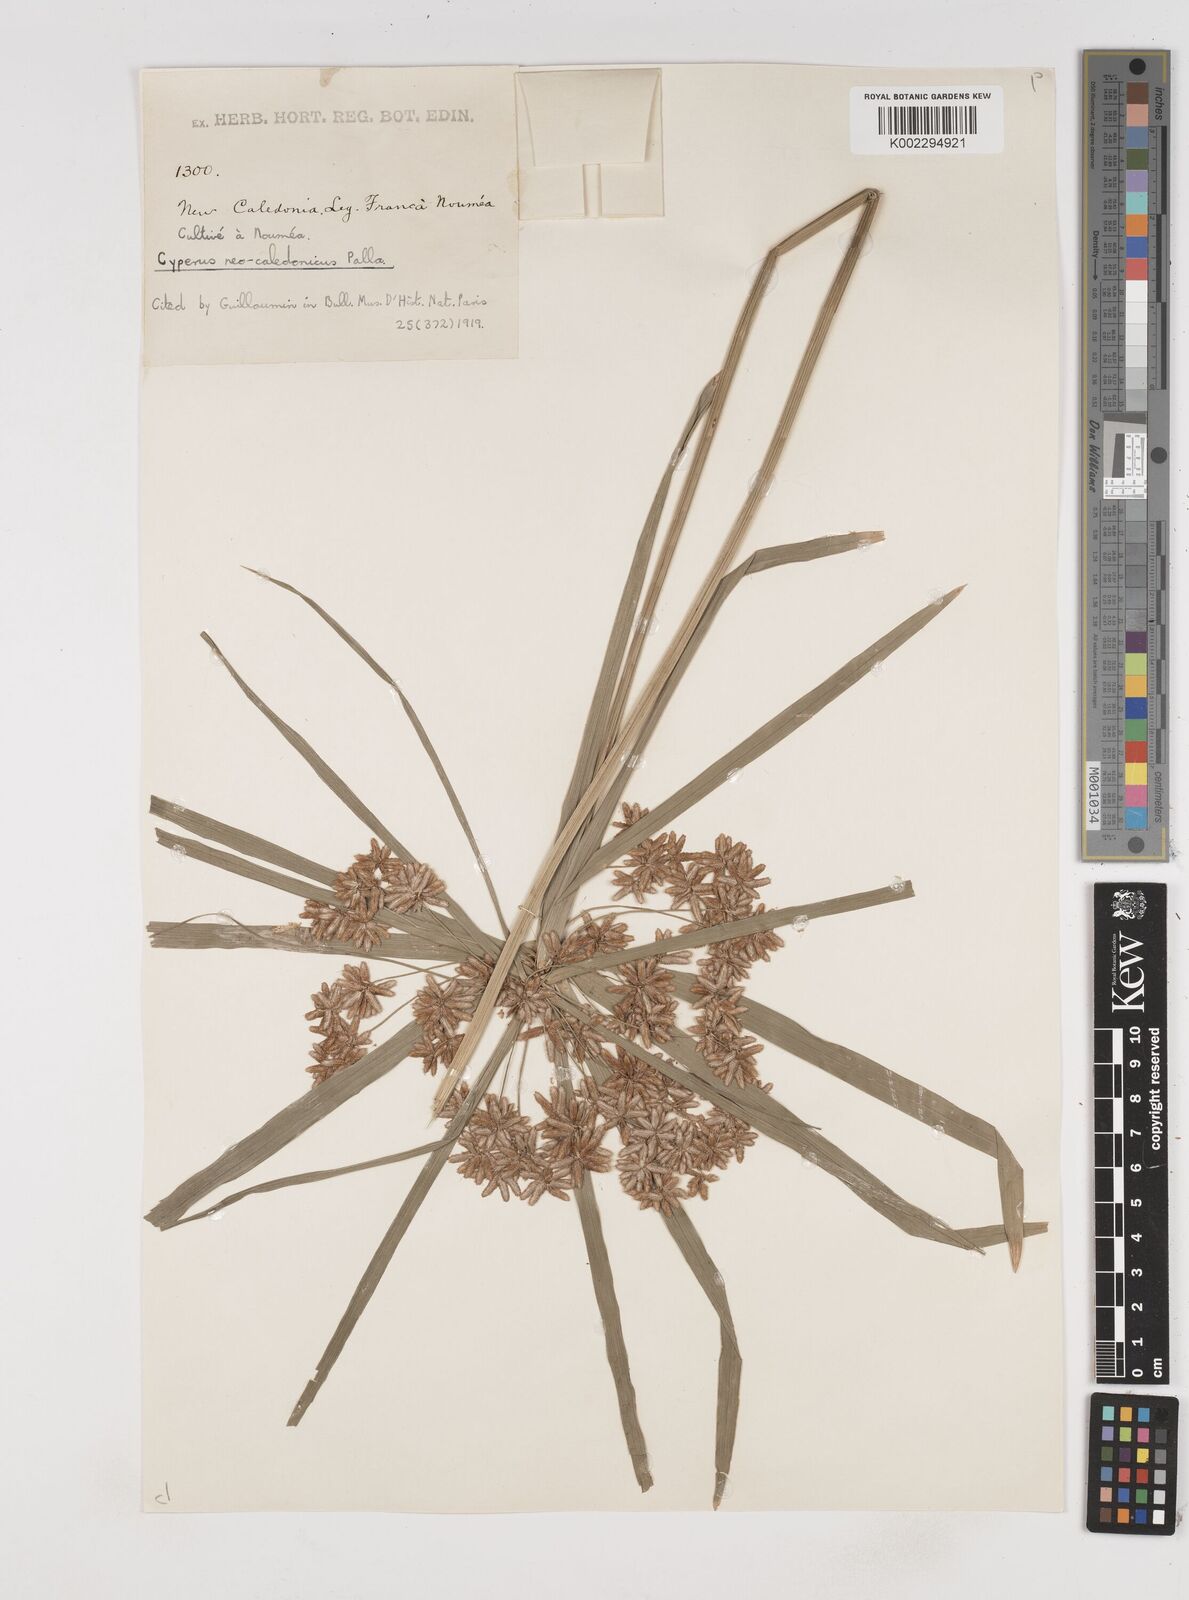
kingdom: Plantae
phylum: Tracheophyta
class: Liliopsida
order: Poales
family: Cyperaceae
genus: Cyperus
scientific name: Cyperus alternifolius
